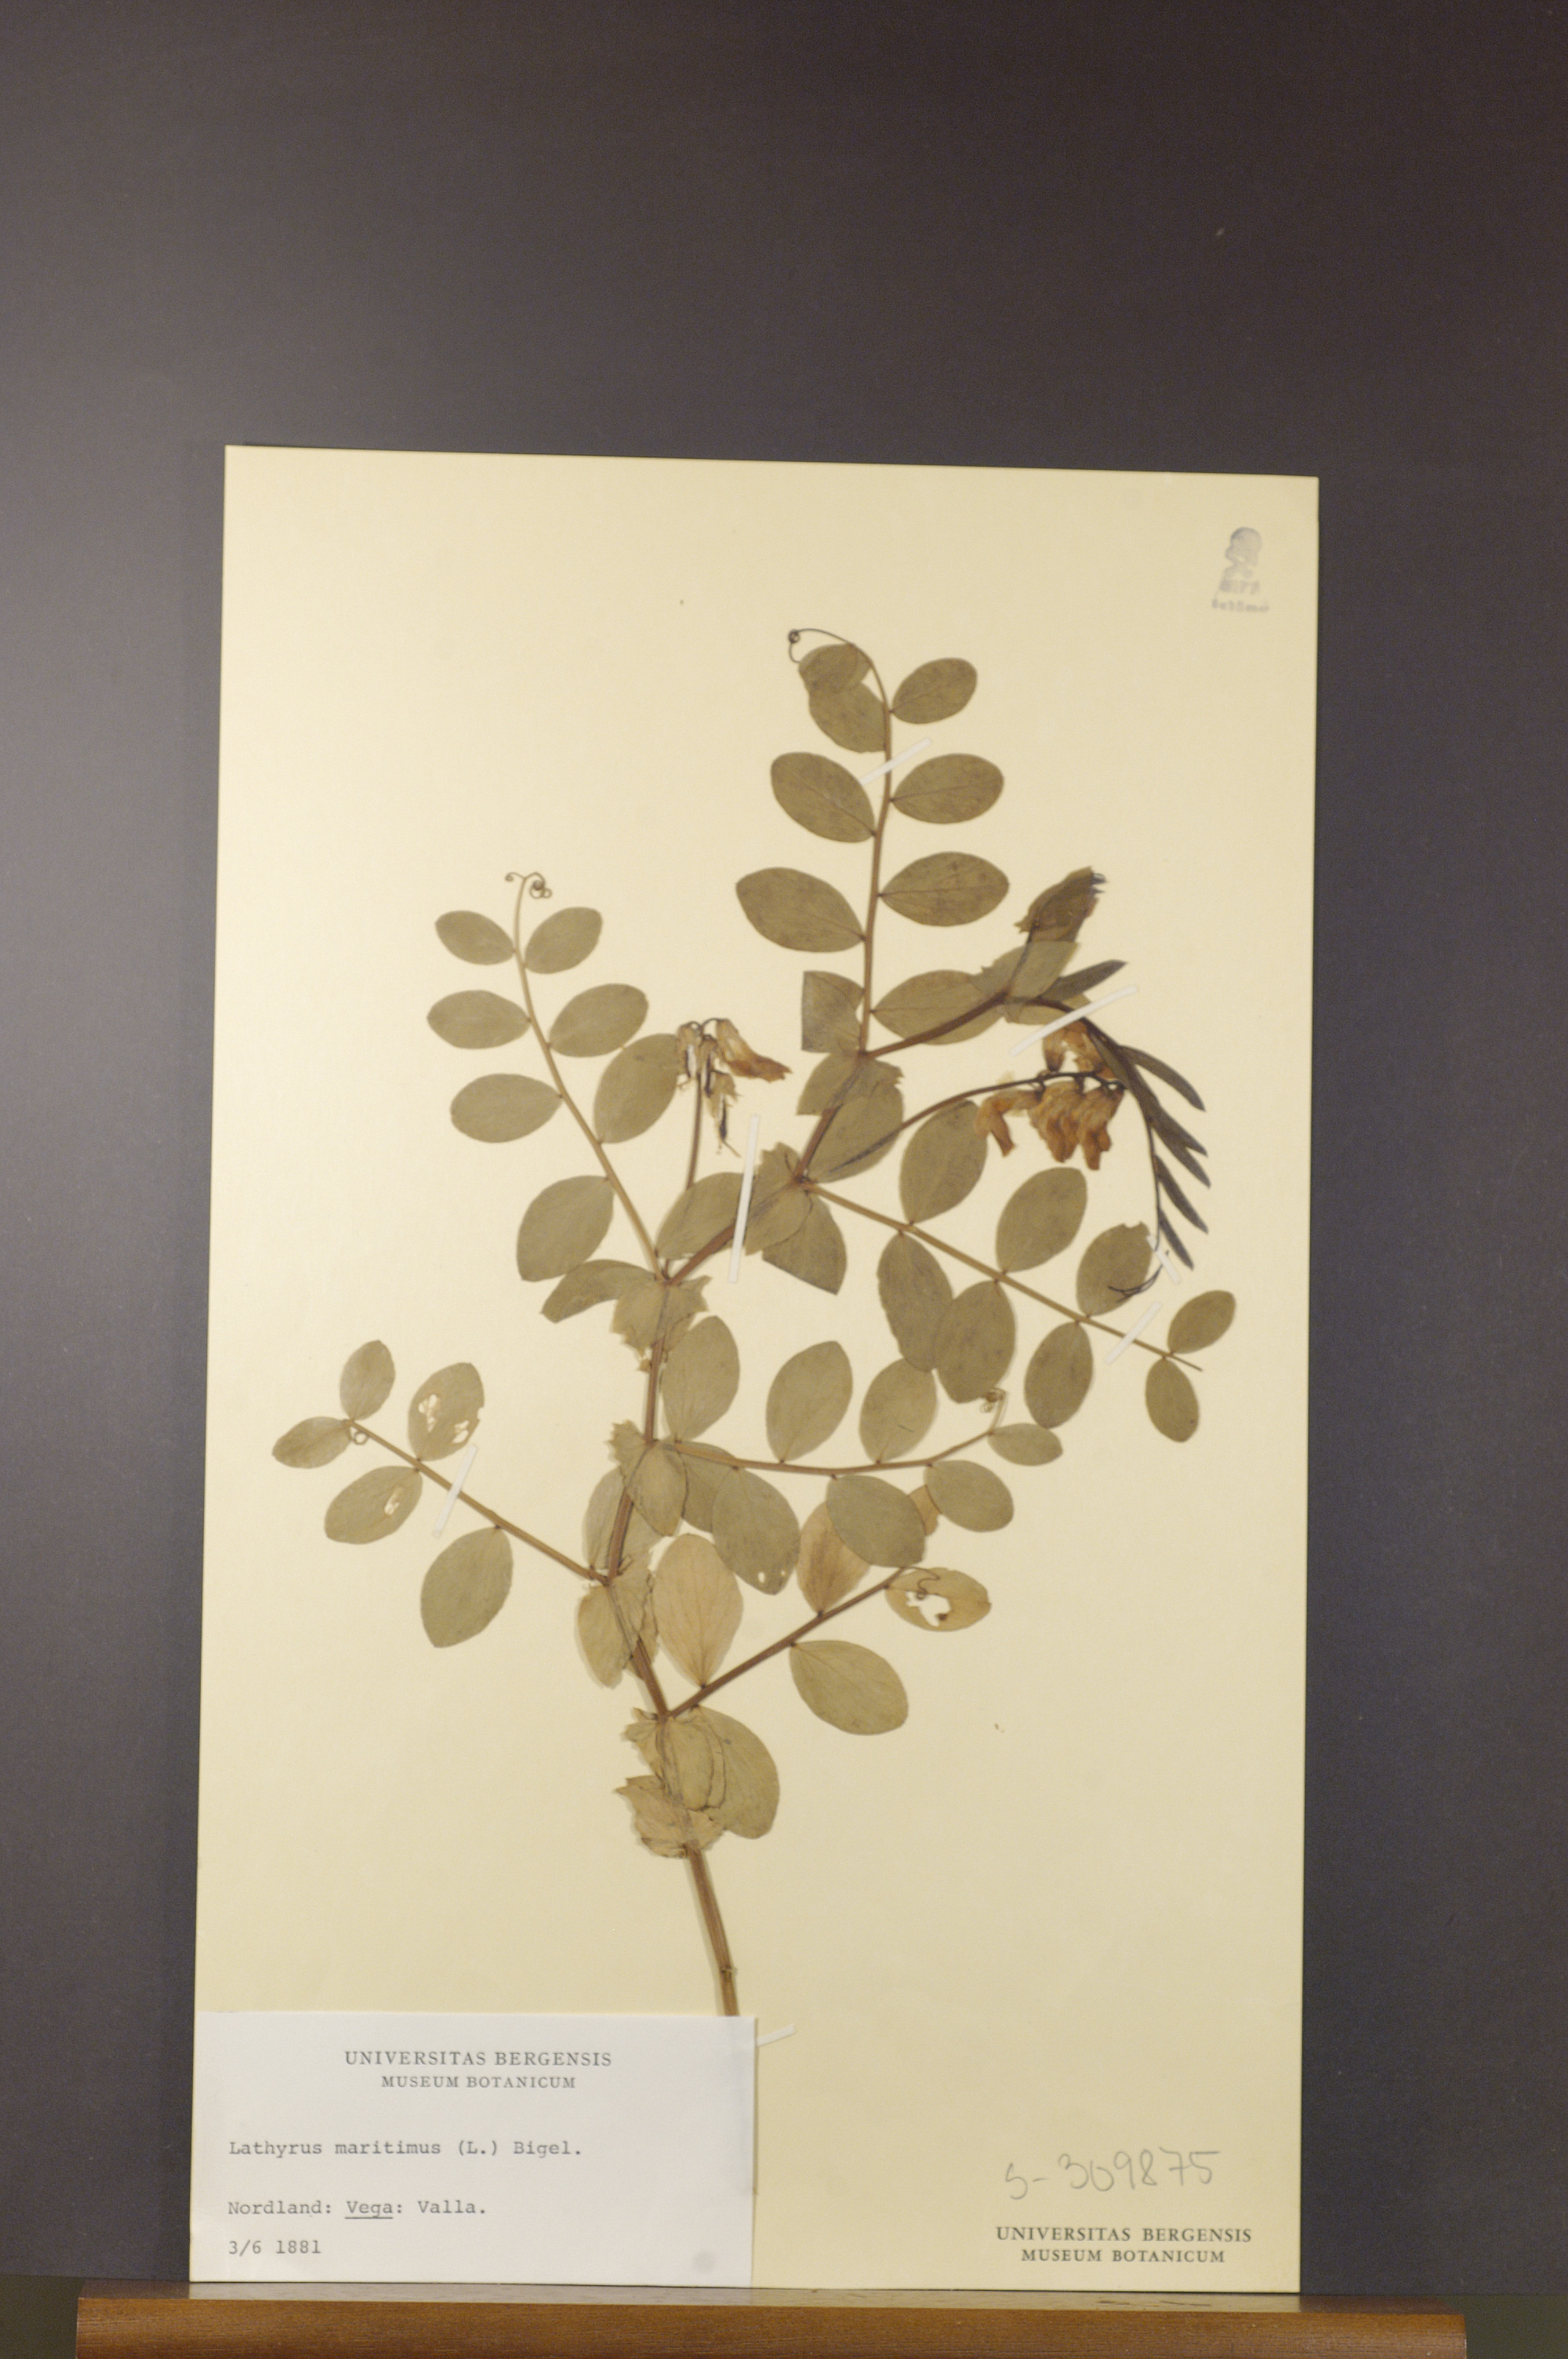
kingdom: Plantae
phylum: Tracheophyta
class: Magnoliopsida
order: Fabales
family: Fabaceae
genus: Lathyrus
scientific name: Lathyrus japonicus
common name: Sea pea
